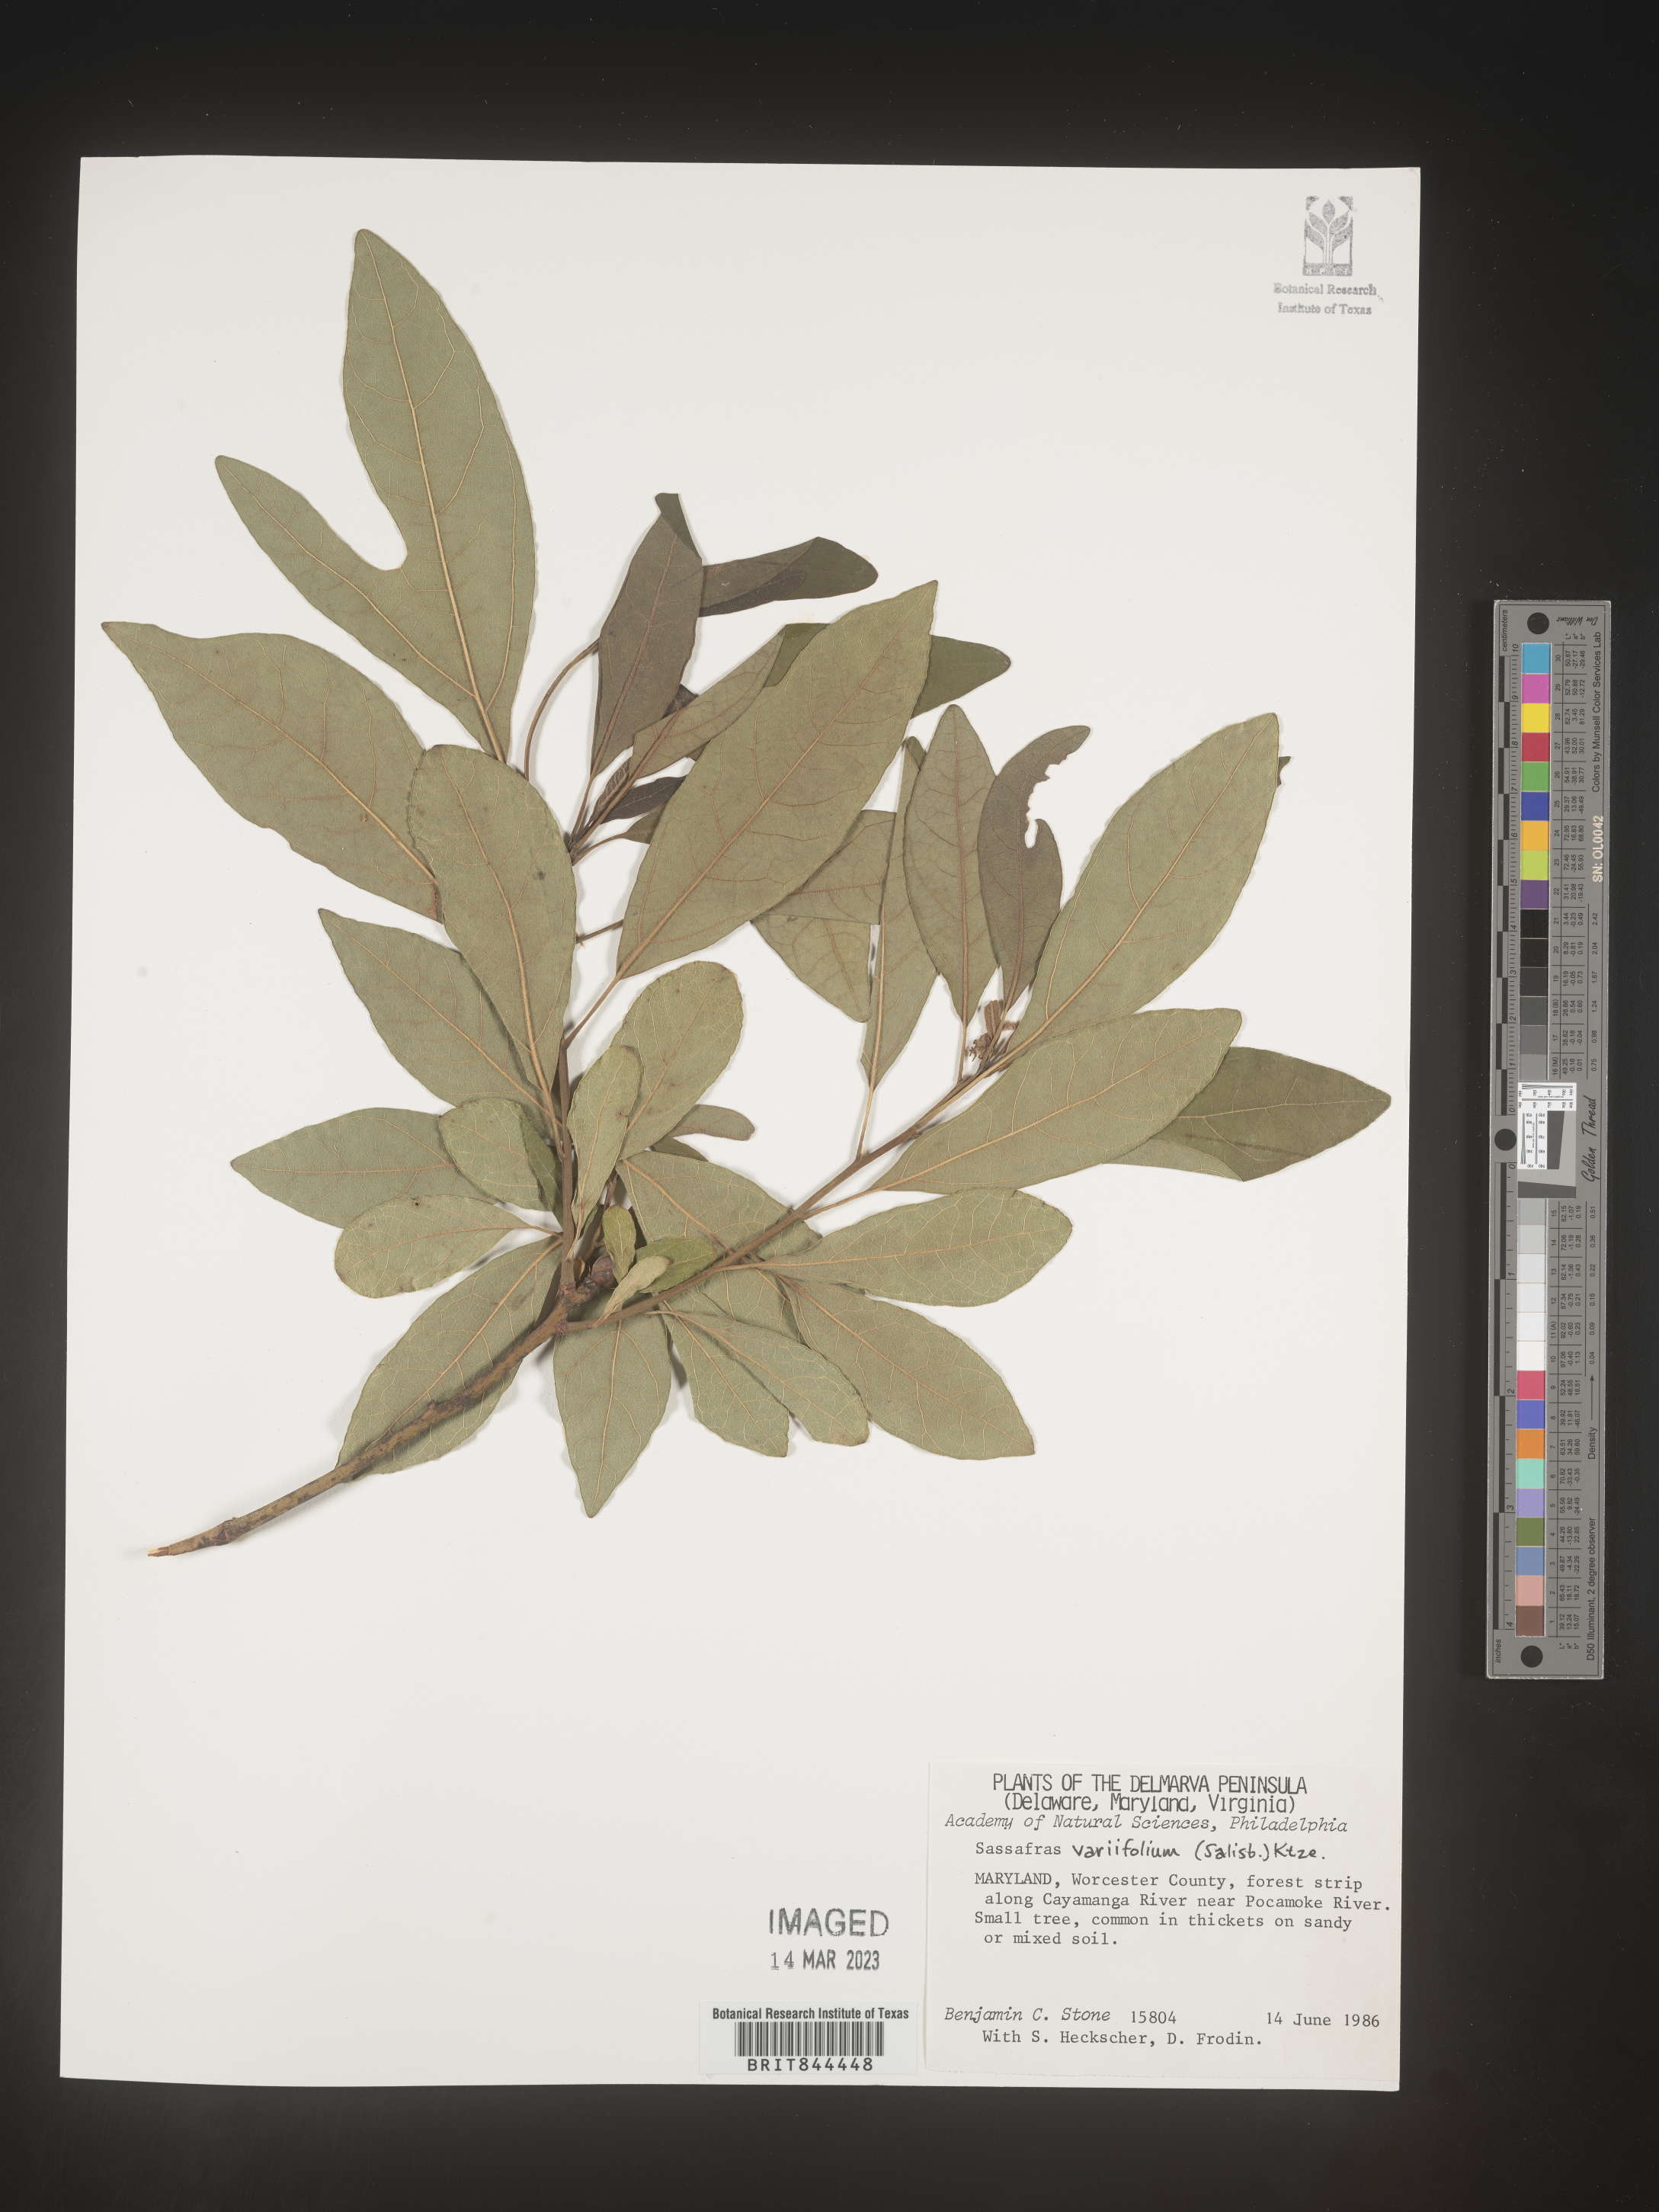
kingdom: Plantae
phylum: Tracheophyta
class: Magnoliopsida
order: Laurales
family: Lauraceae
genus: Sassafras
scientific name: Sassafras albidum
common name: Sassafras
